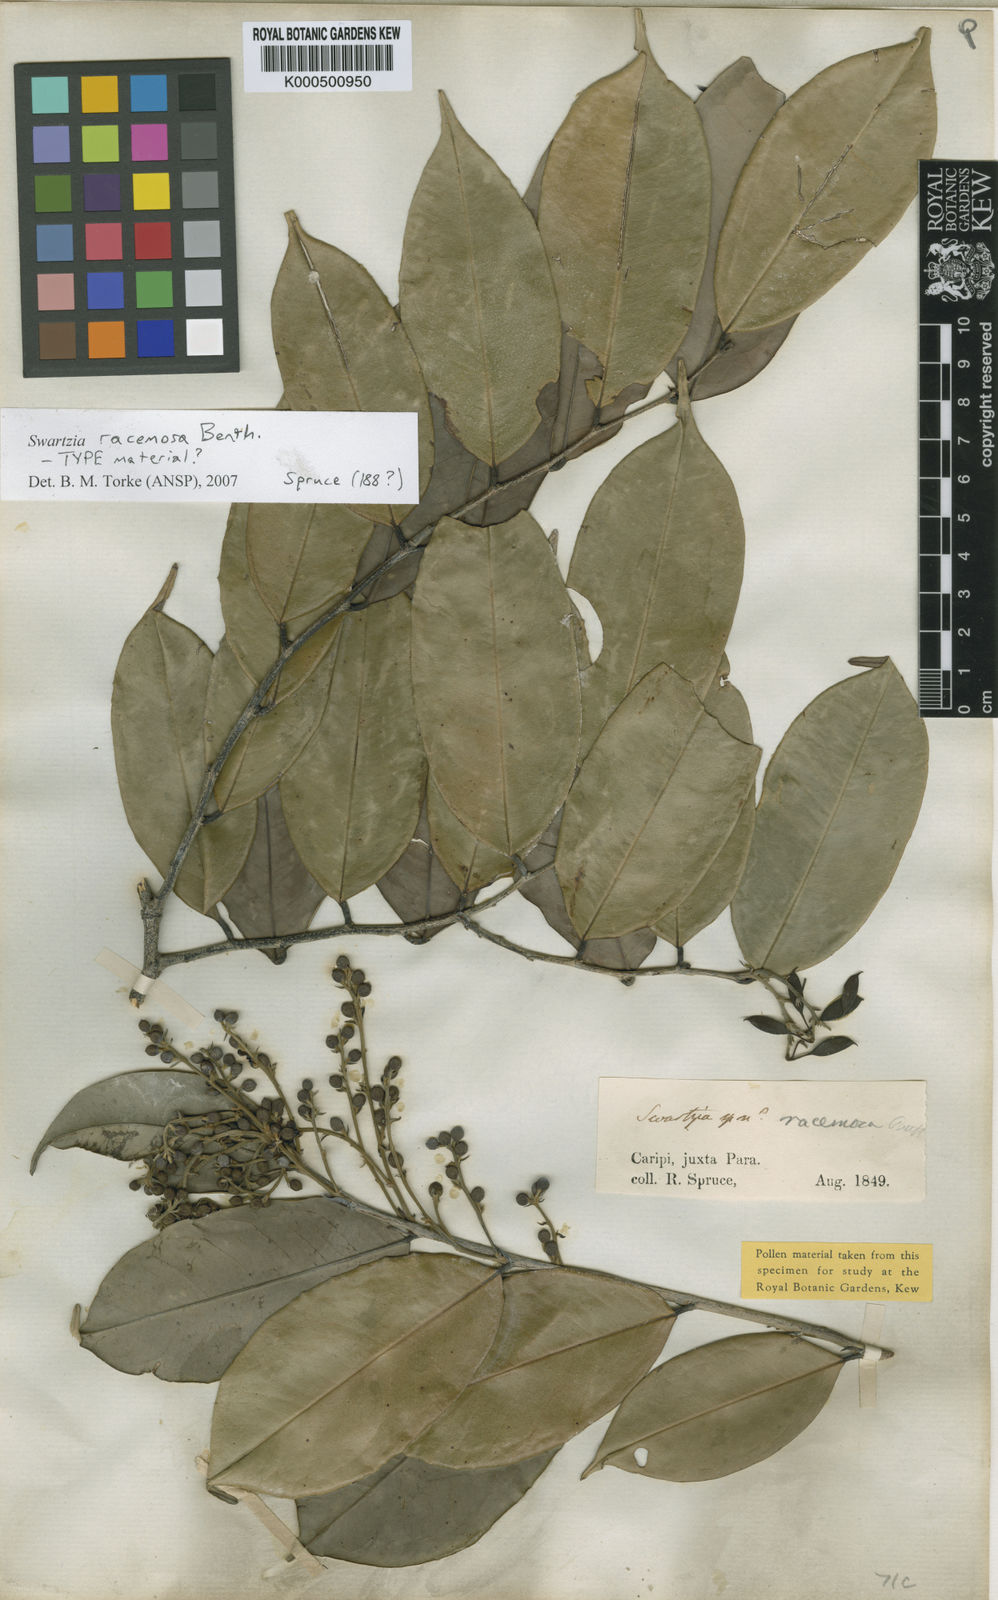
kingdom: Plantae
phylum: Tracheophyta
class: Magnoliopsida
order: Fabales
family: Fabaceae
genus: Swartzia
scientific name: Swartzia racemosa
